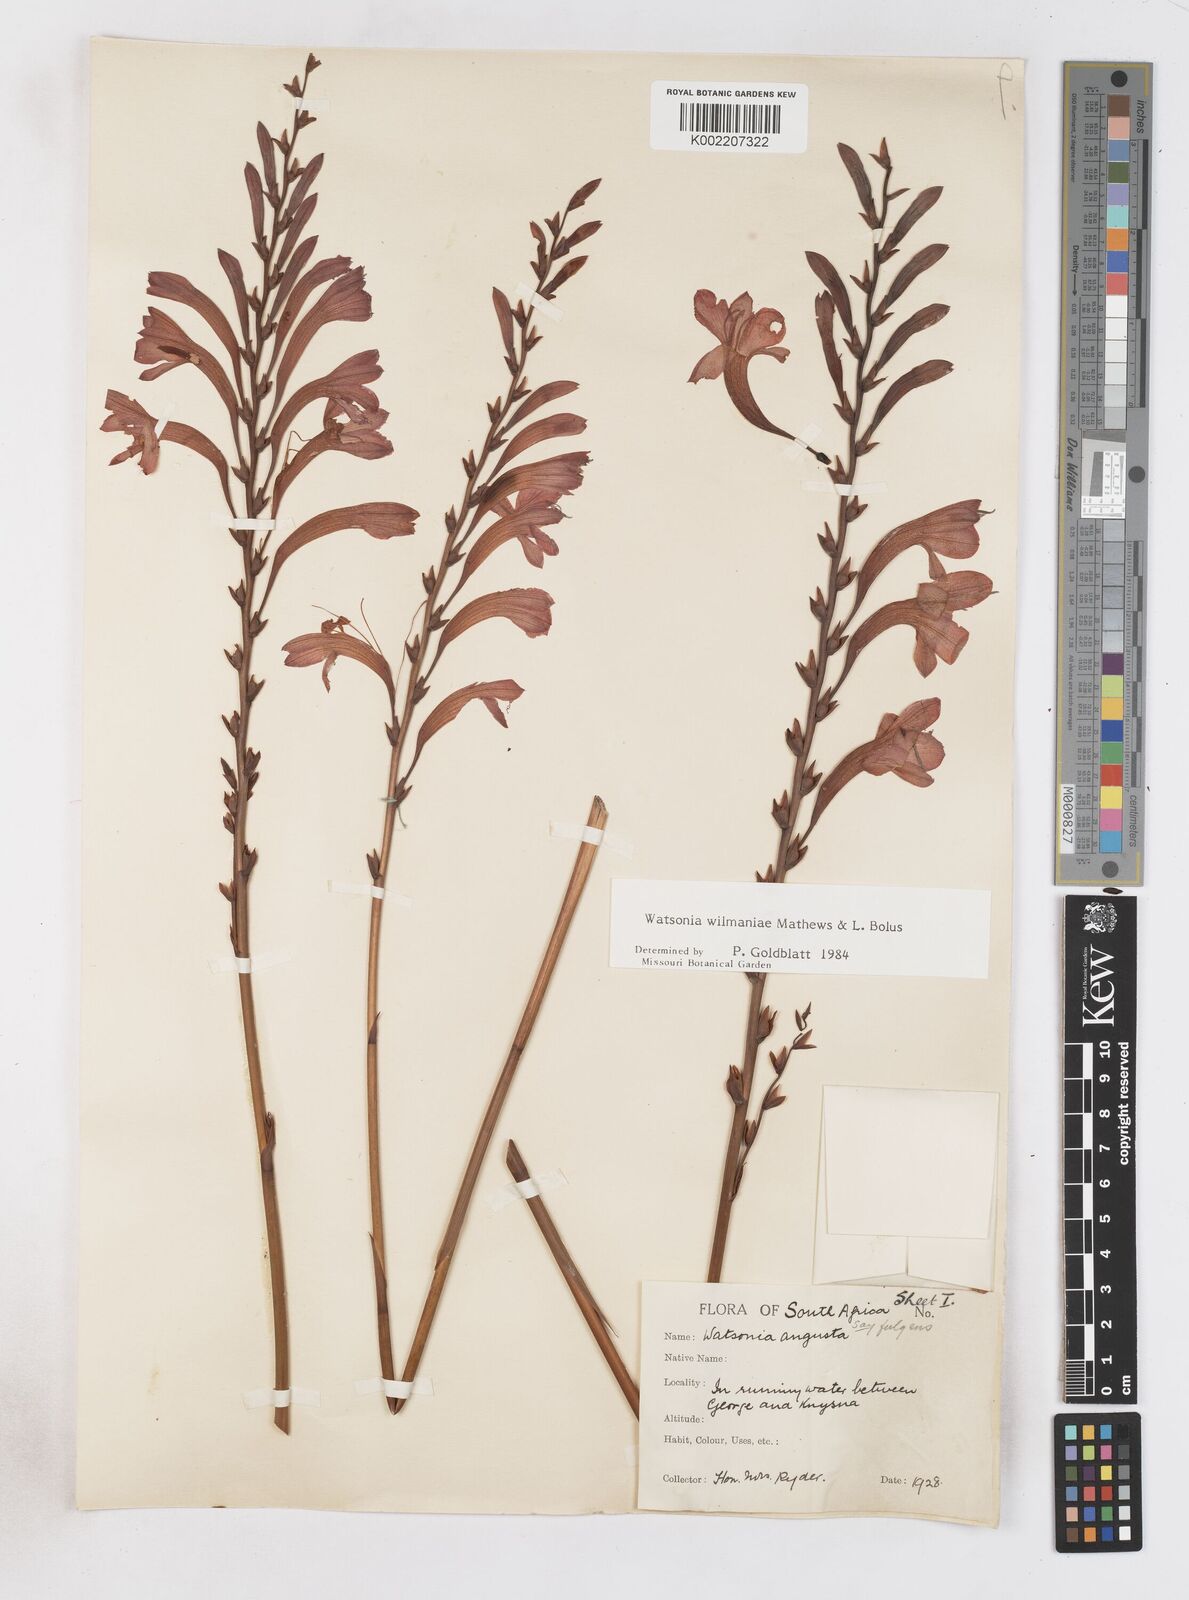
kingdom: Plantae
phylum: Tracheophyta
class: Liliopsida
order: Asparagales
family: Iridaceae
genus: Watsonia
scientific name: Watsonia wilmaniae
